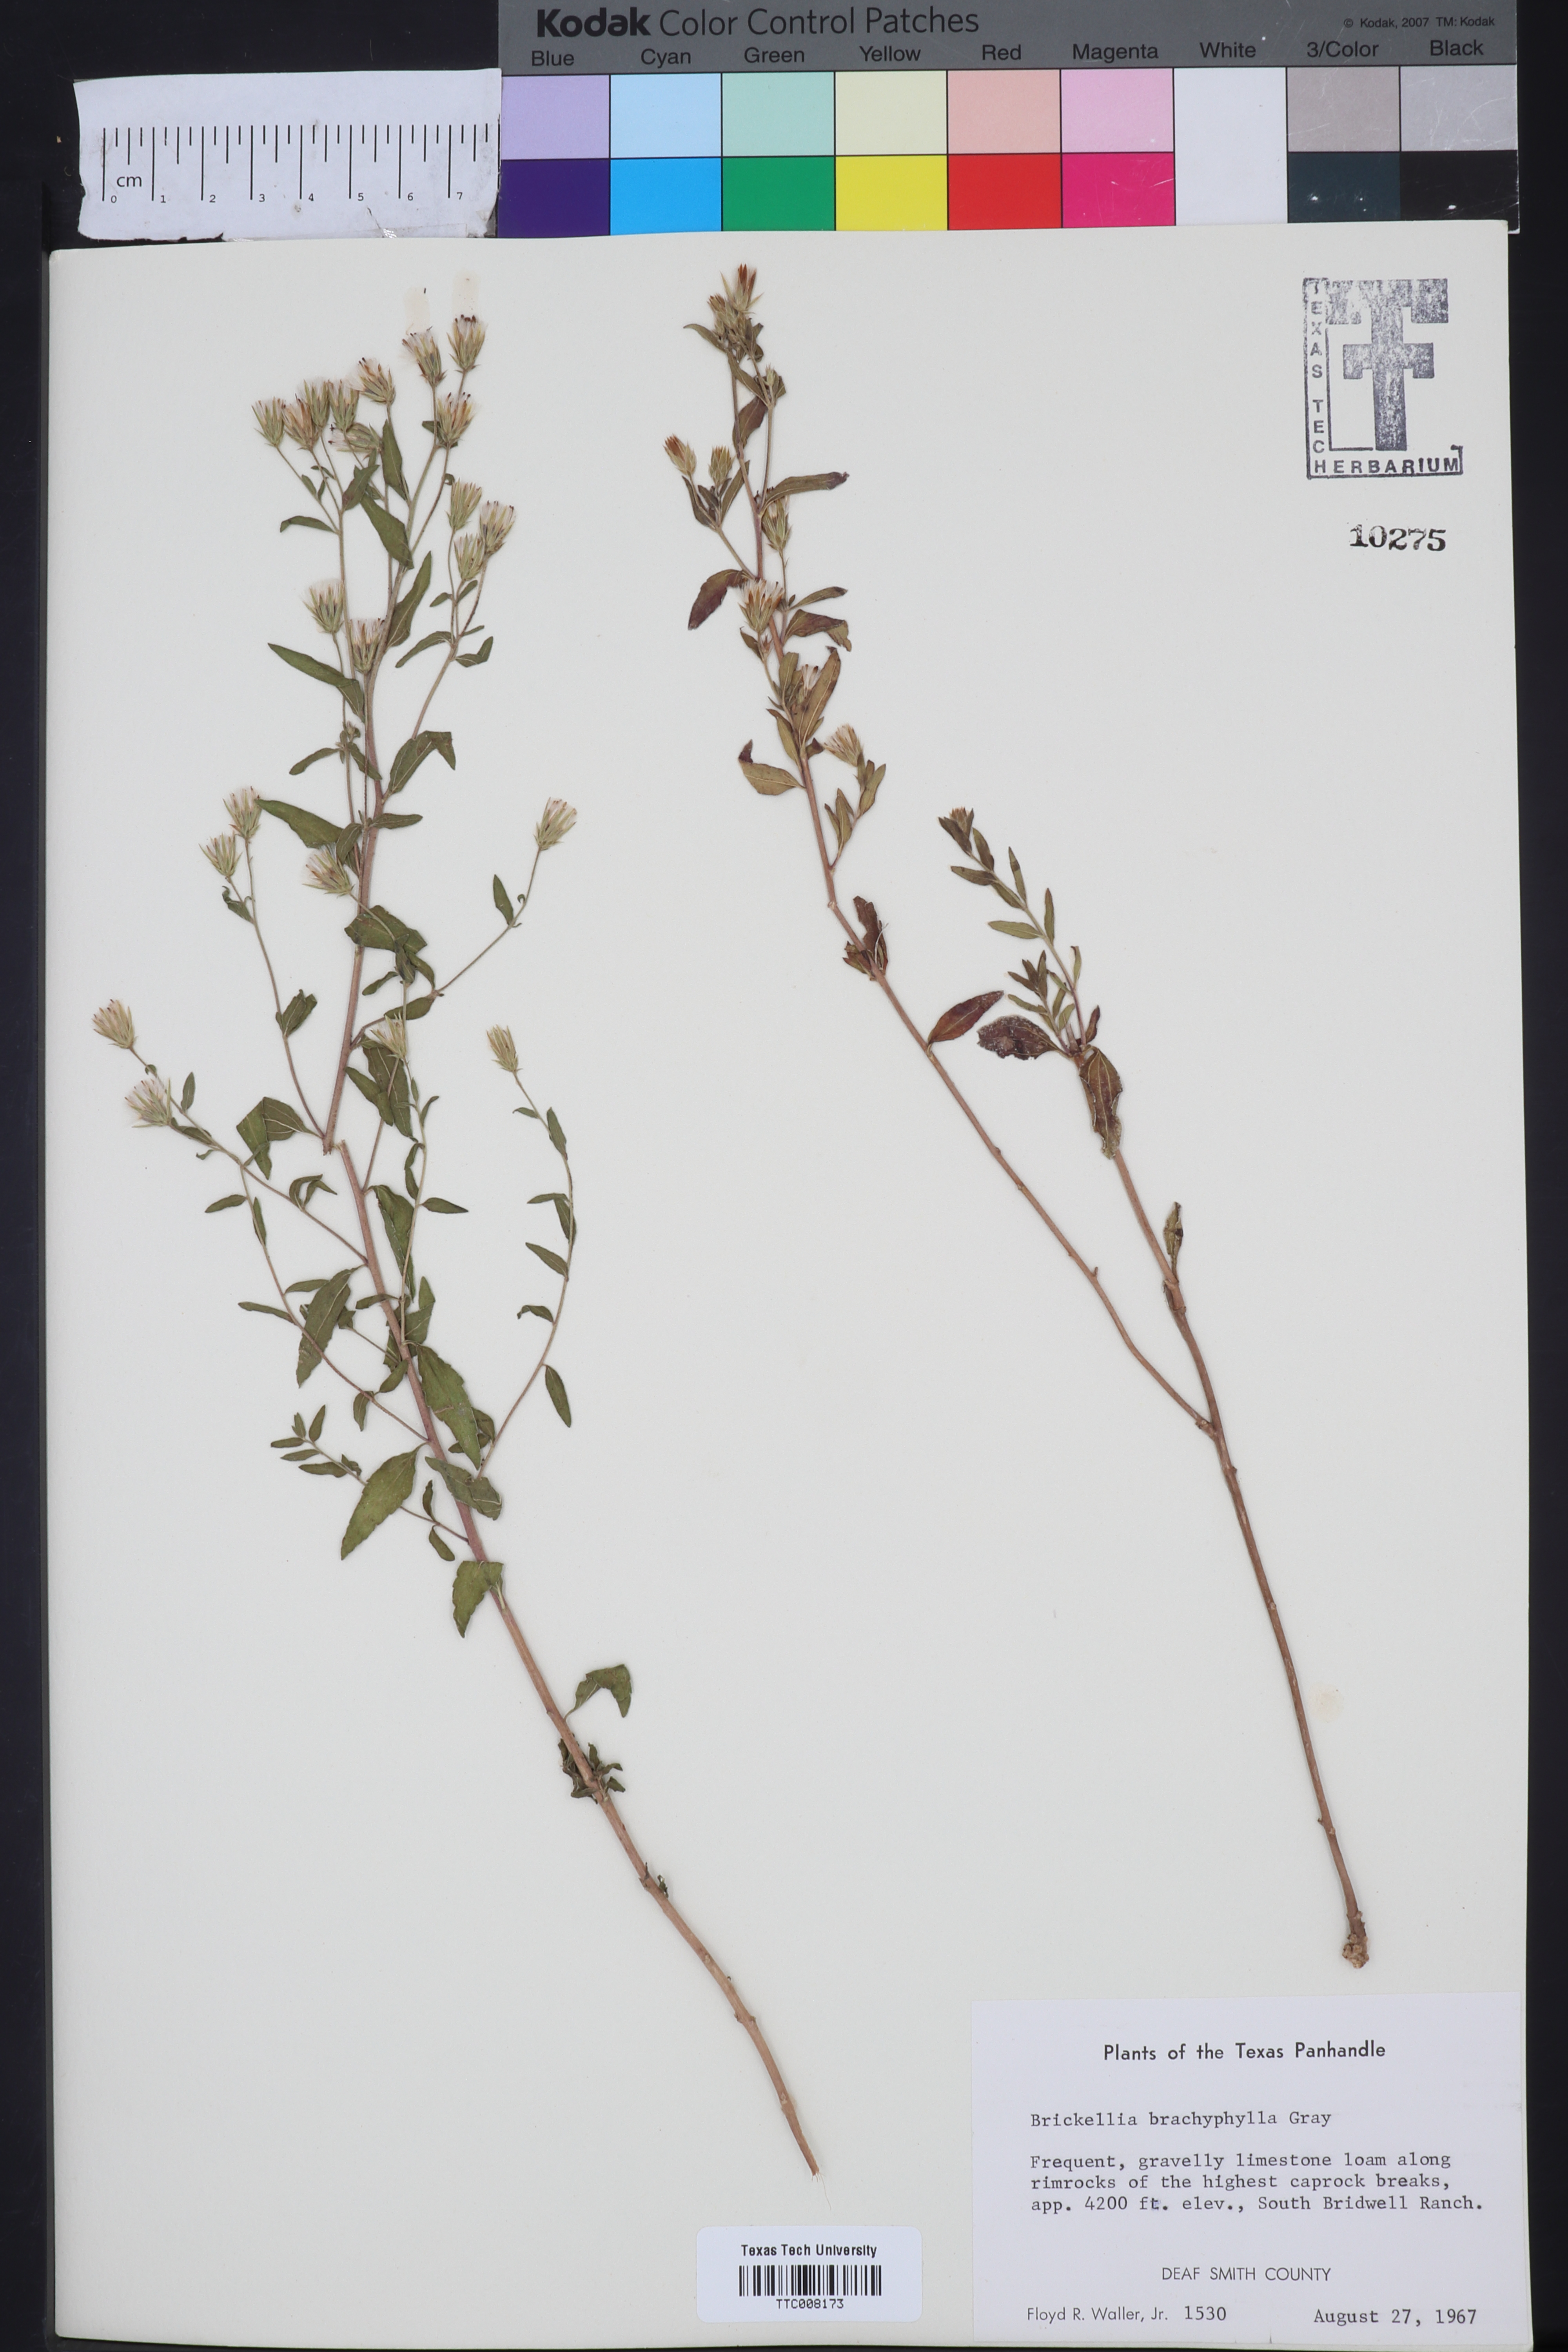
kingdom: Plantae
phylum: Tracheophyta
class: Magnoliopsida
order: Asterales
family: Asteraceae
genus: Brickellia
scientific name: Brickellia brachyphylla
